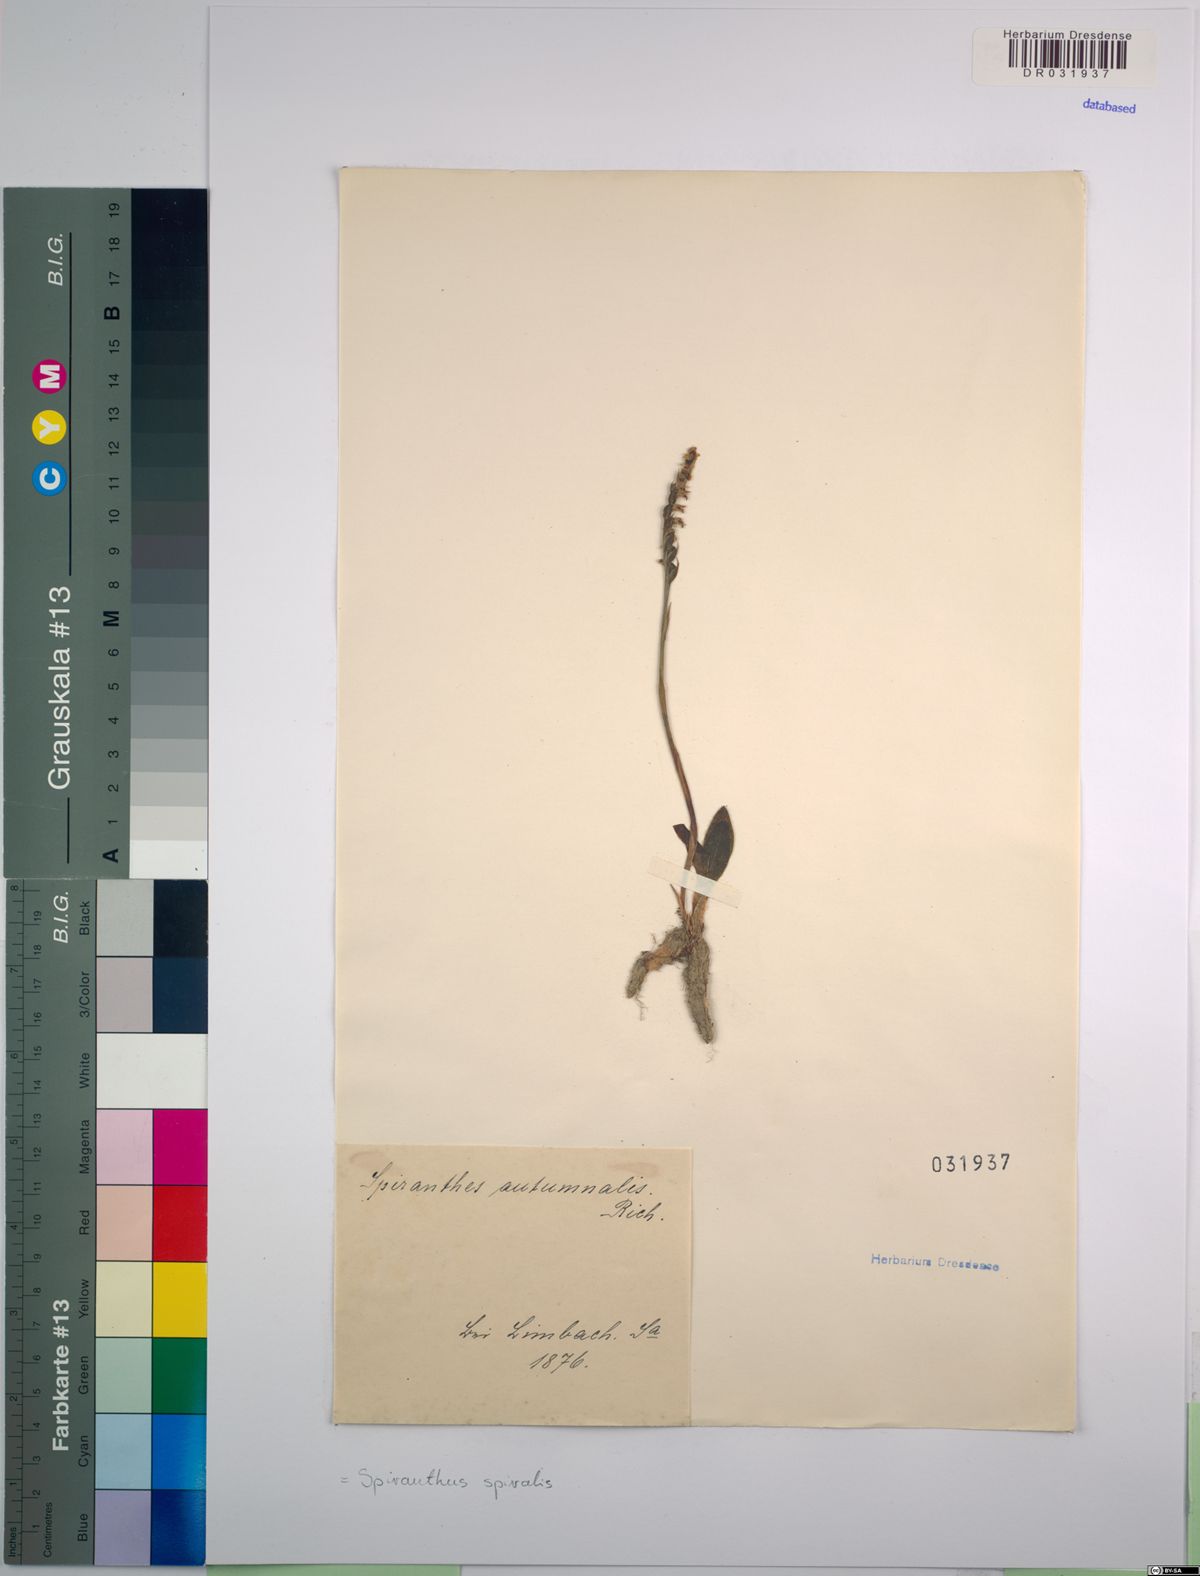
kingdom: Plantae
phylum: Tracheophyta
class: Liliopsida
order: Asparagales
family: Orchidaceae
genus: Spiranthes
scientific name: Spiranthes spiralis
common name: Autumn lady's-tresses
